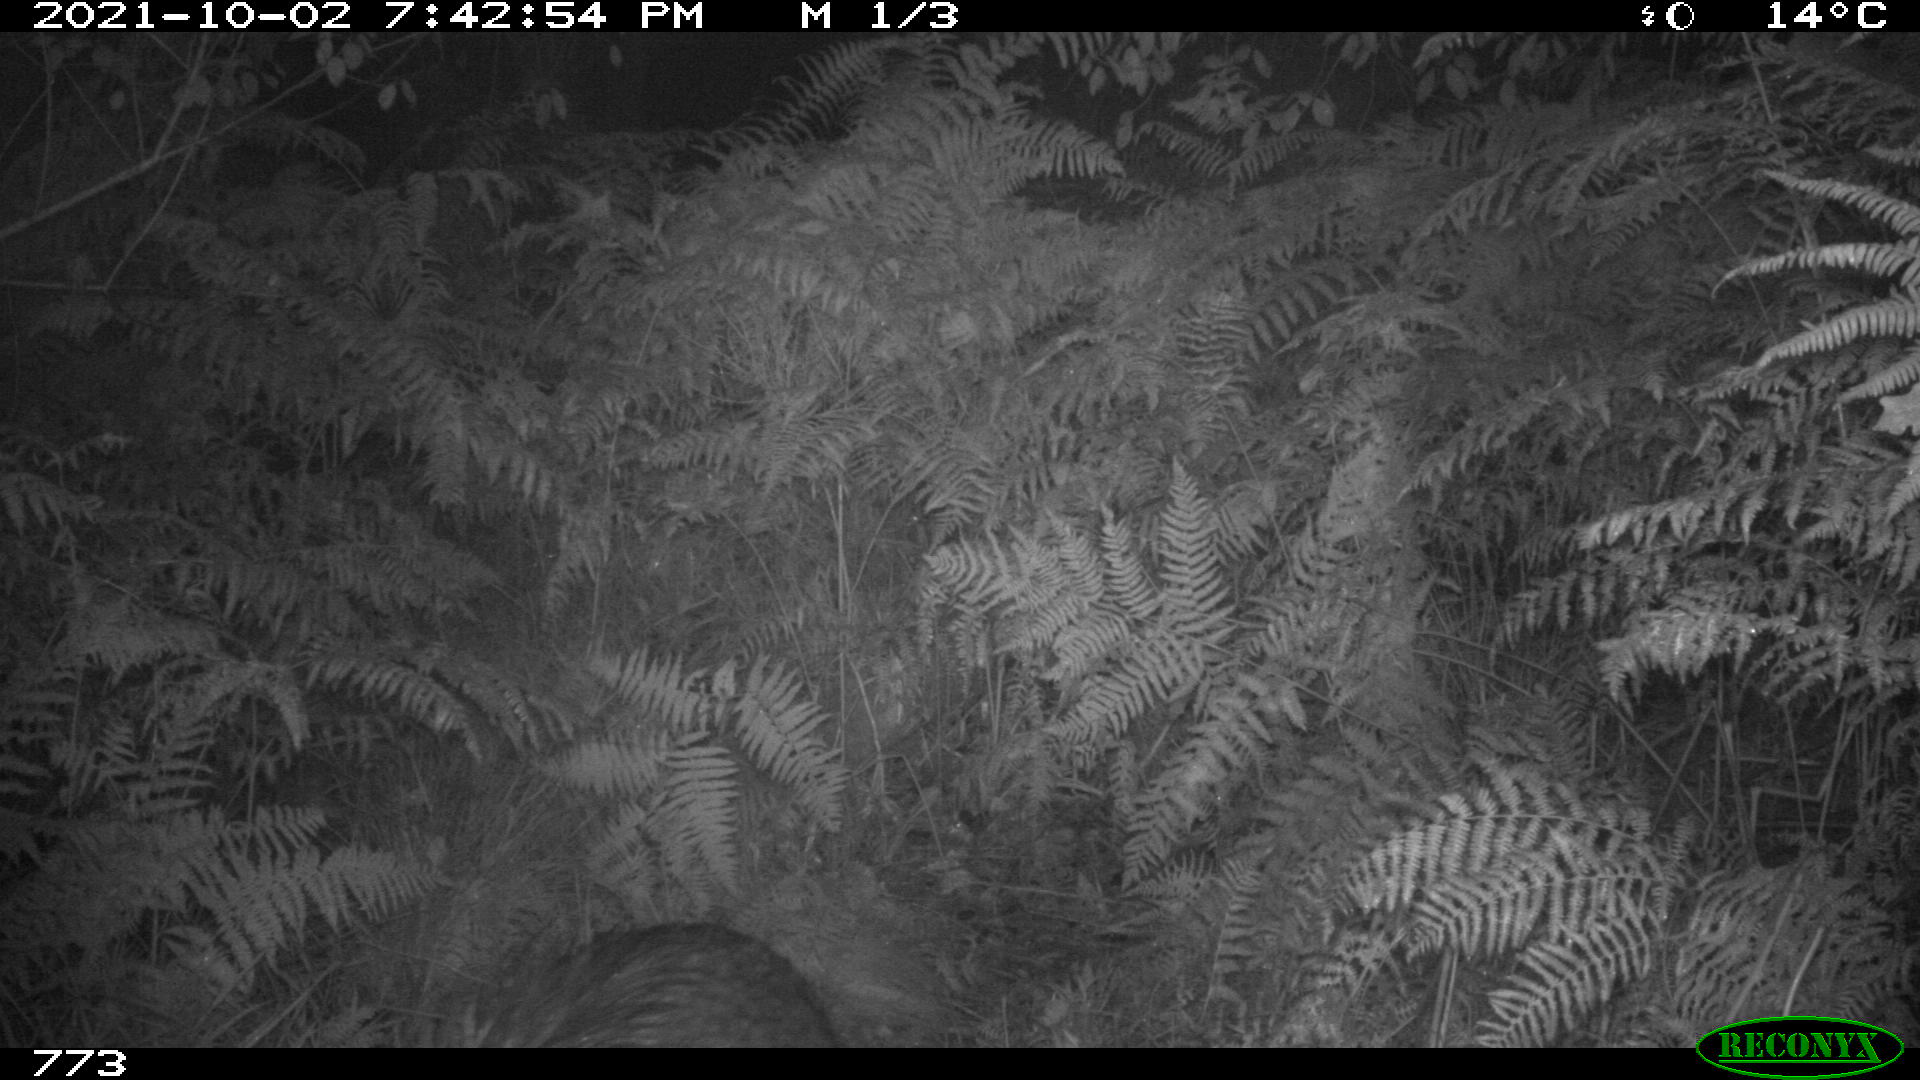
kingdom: Animalia
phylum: Chordata
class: Mammalia
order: Artiodactyla
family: Suidae
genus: Sus
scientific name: Sus scrofa
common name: Wild boar
